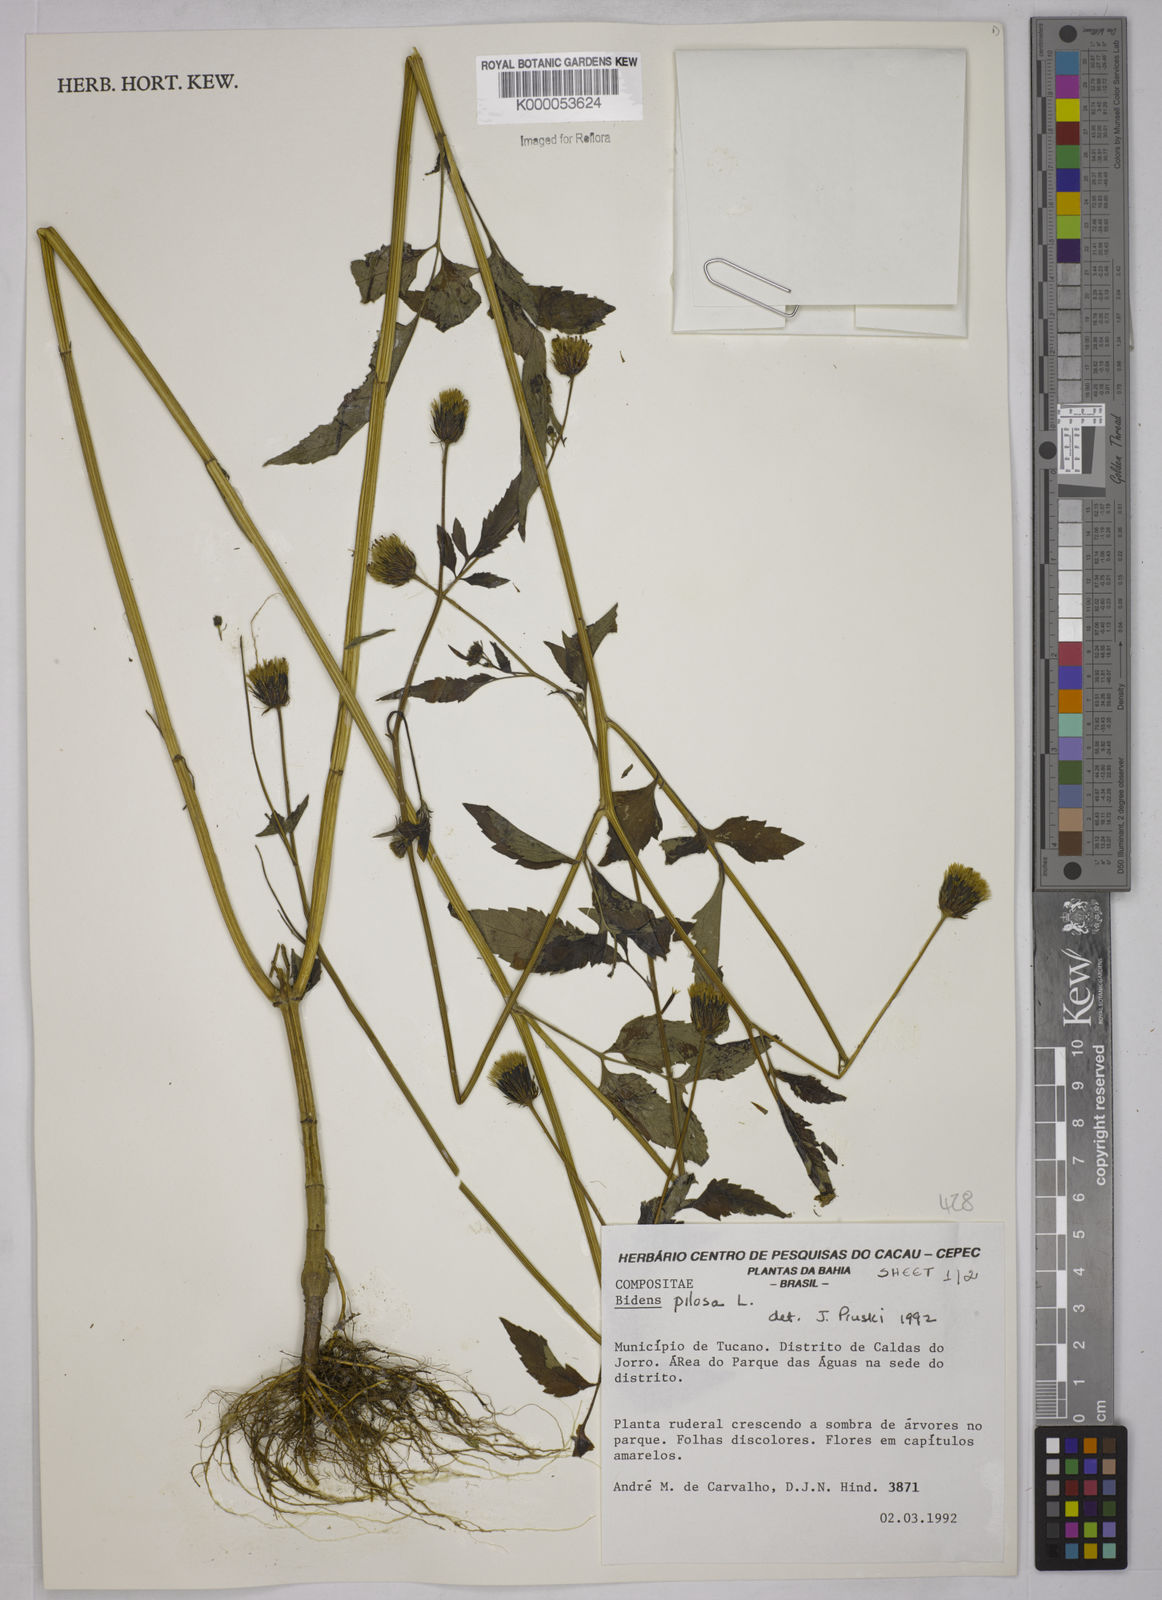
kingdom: Plantae
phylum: Tracheophyta
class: Magnoliopsida
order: Asterales
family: Asteraceae
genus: Bidens
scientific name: Bidens pilosa
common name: Black-jack
